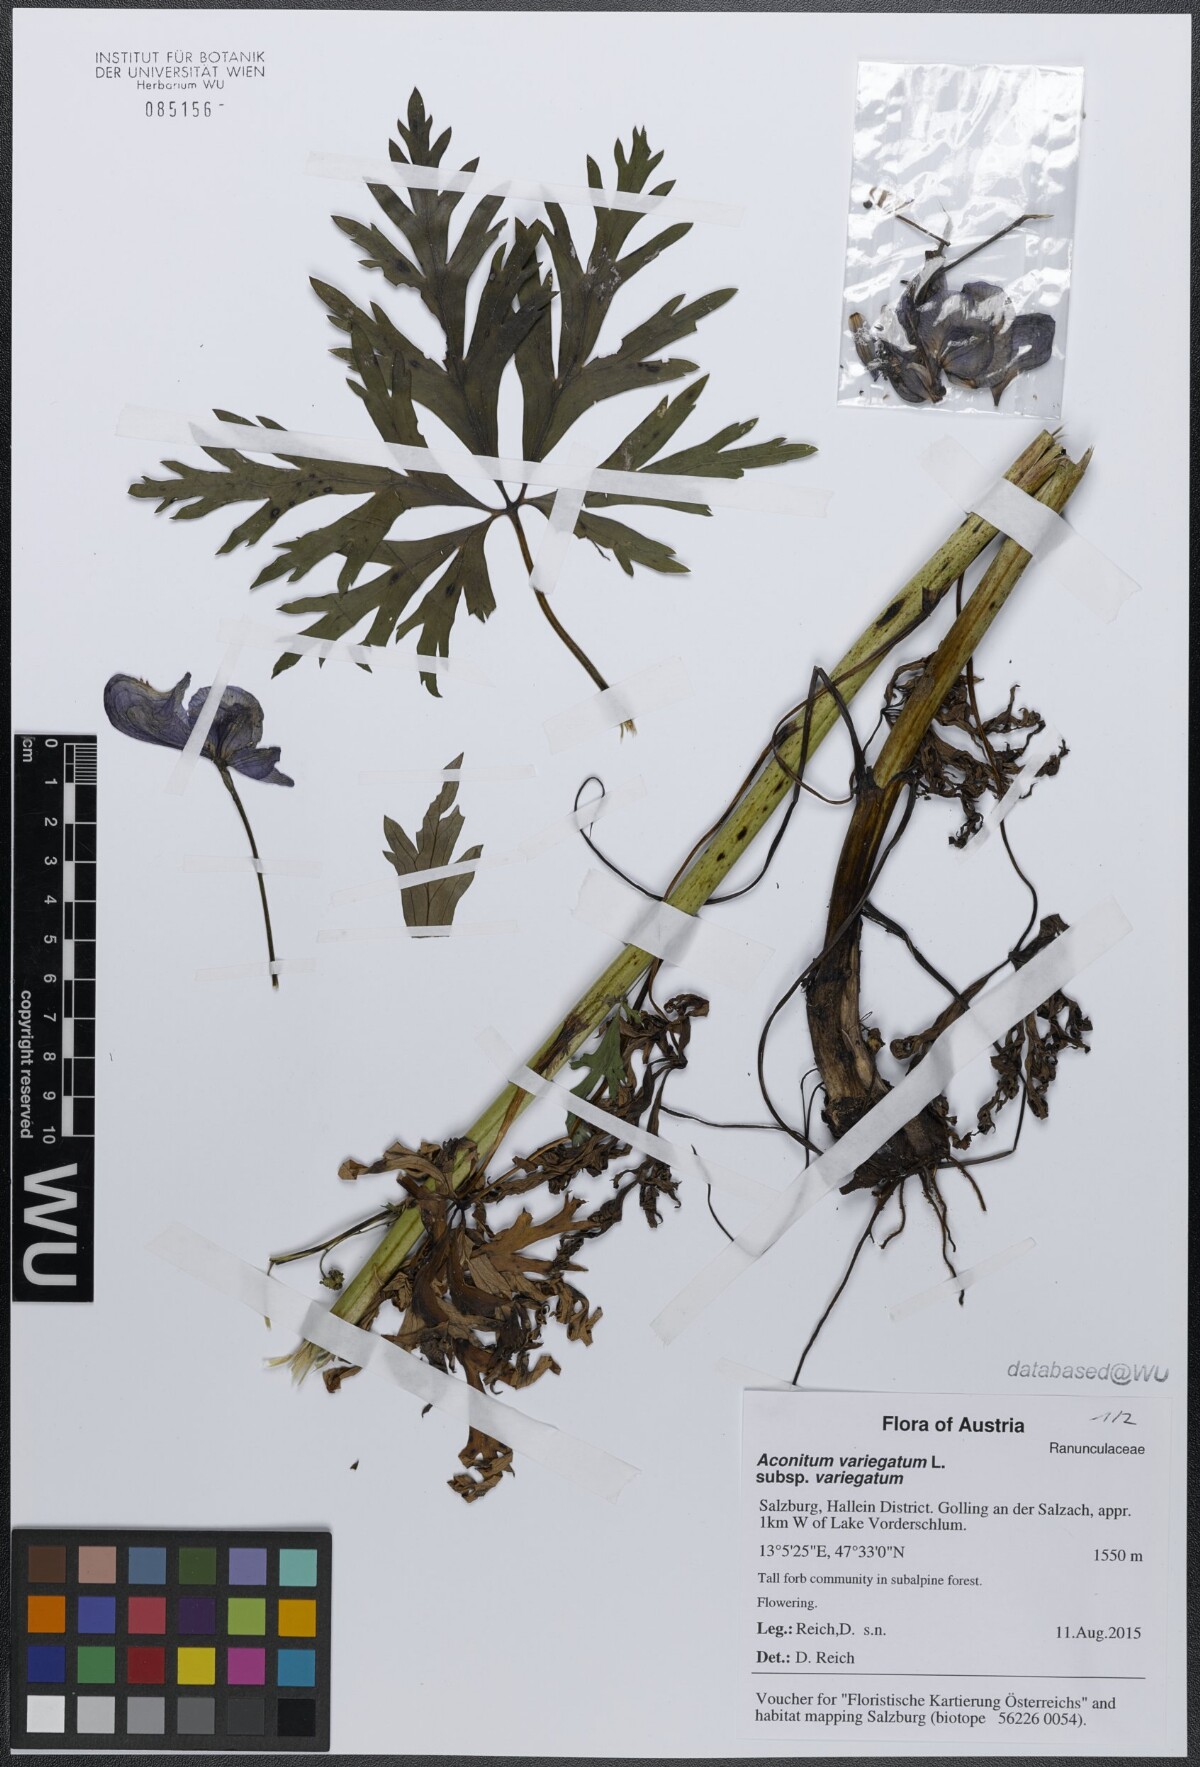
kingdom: Plantae
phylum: Tracheophyta
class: Magnoliopsida
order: Ranunculales
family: Ranunculaceae
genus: Aconitum
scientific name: Aconitum variegatum
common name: Manchurian monkshood
